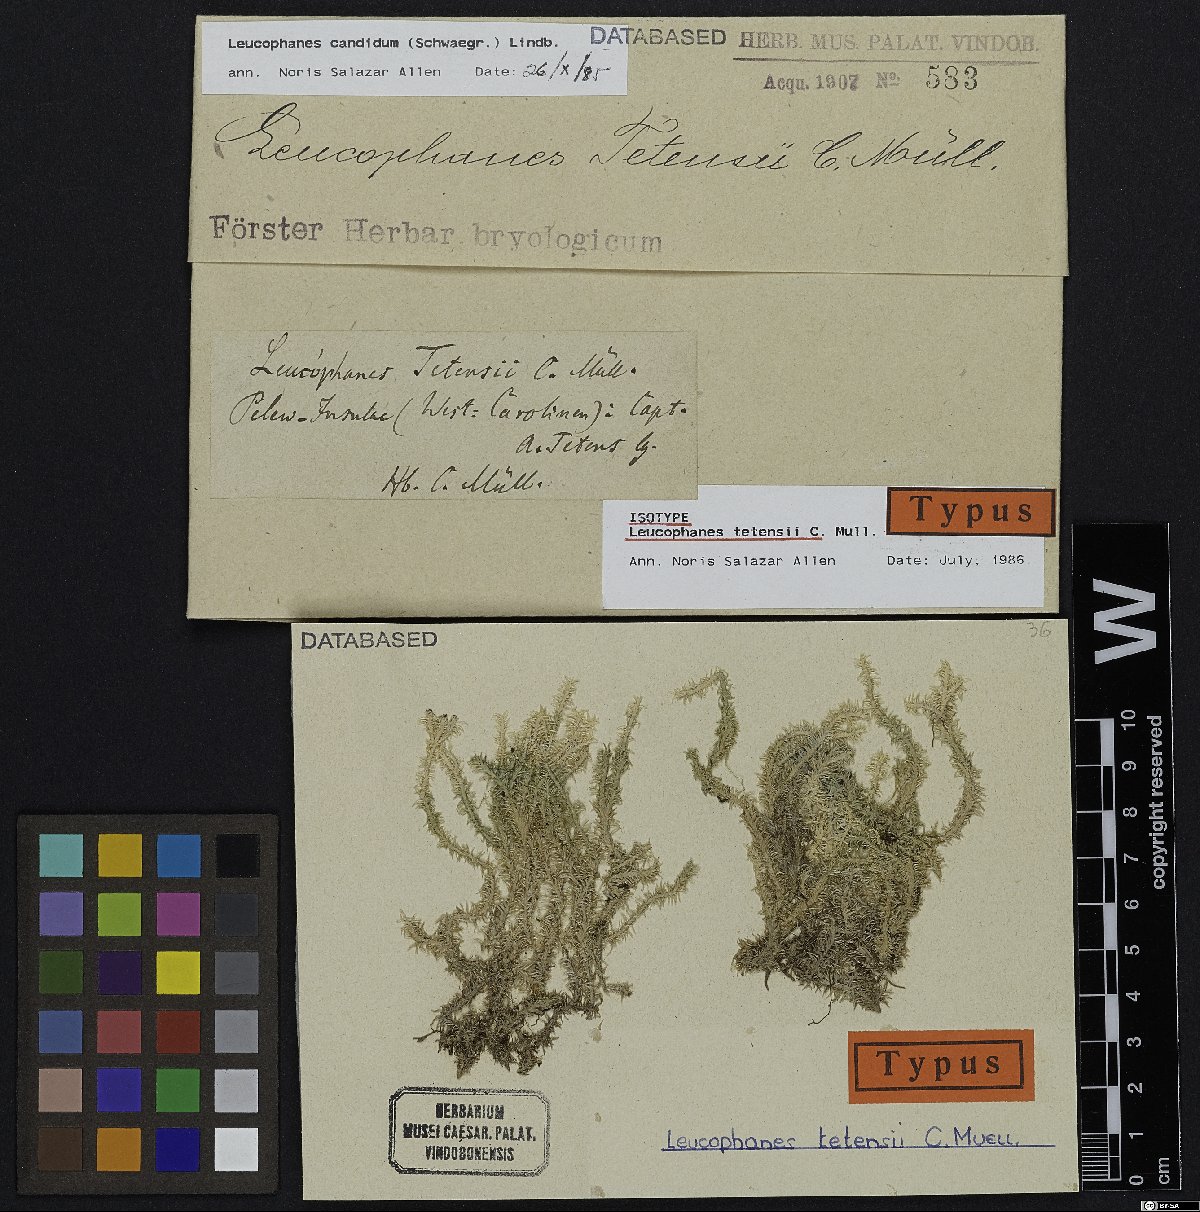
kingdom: Plantae
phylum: Bryophyta
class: Bryopsida
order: Dicranales
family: Calymperaceae
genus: Leucophanes
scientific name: Leucophanes candidum
